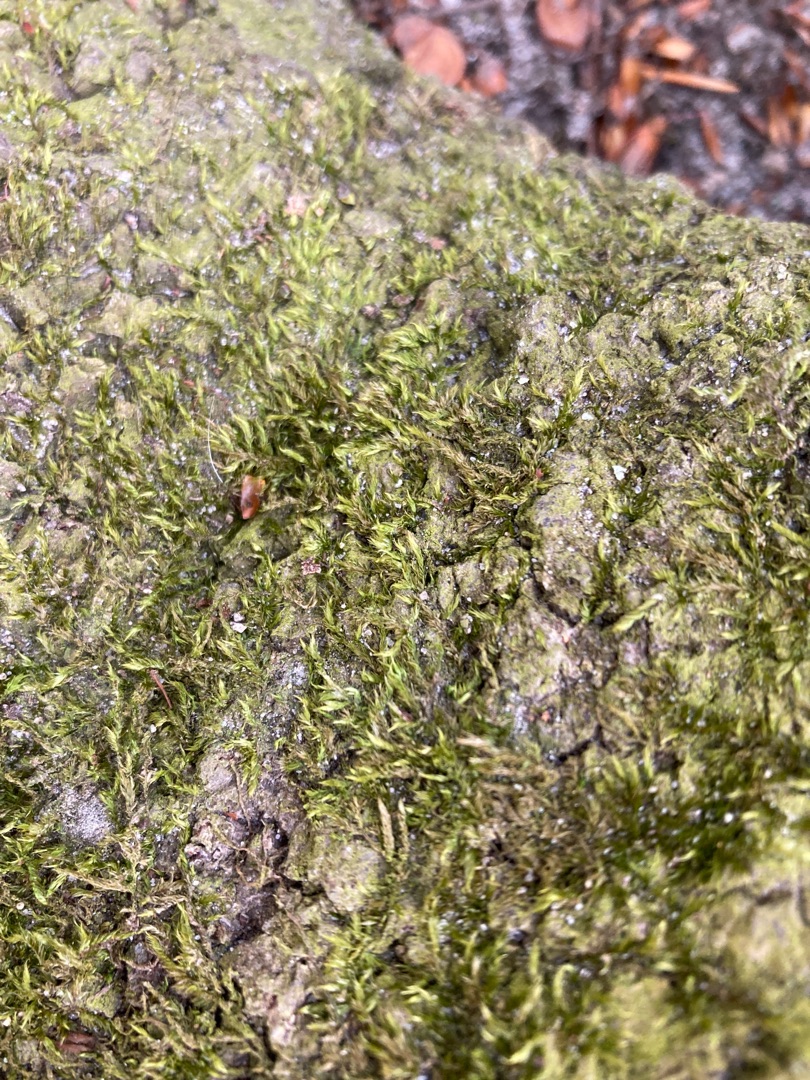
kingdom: Plantae
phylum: Bryophyta
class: Bryopsida
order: Hypnales
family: Hypnaceae
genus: Hypnum
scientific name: Hypnum
